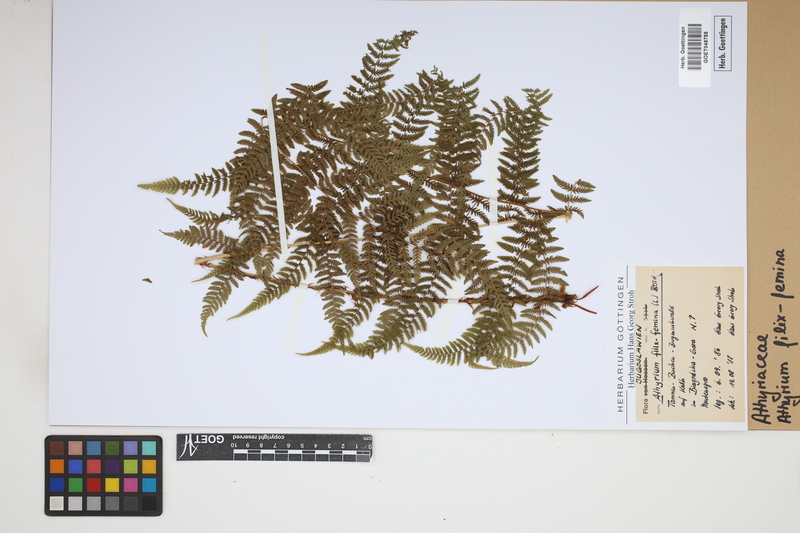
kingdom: Plantae
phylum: Tracheophyta
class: Polypodiopsida
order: Polypodiales
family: Athyriaceae
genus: Athyrium
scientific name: Athyrium filix-femina
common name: Lady fern
